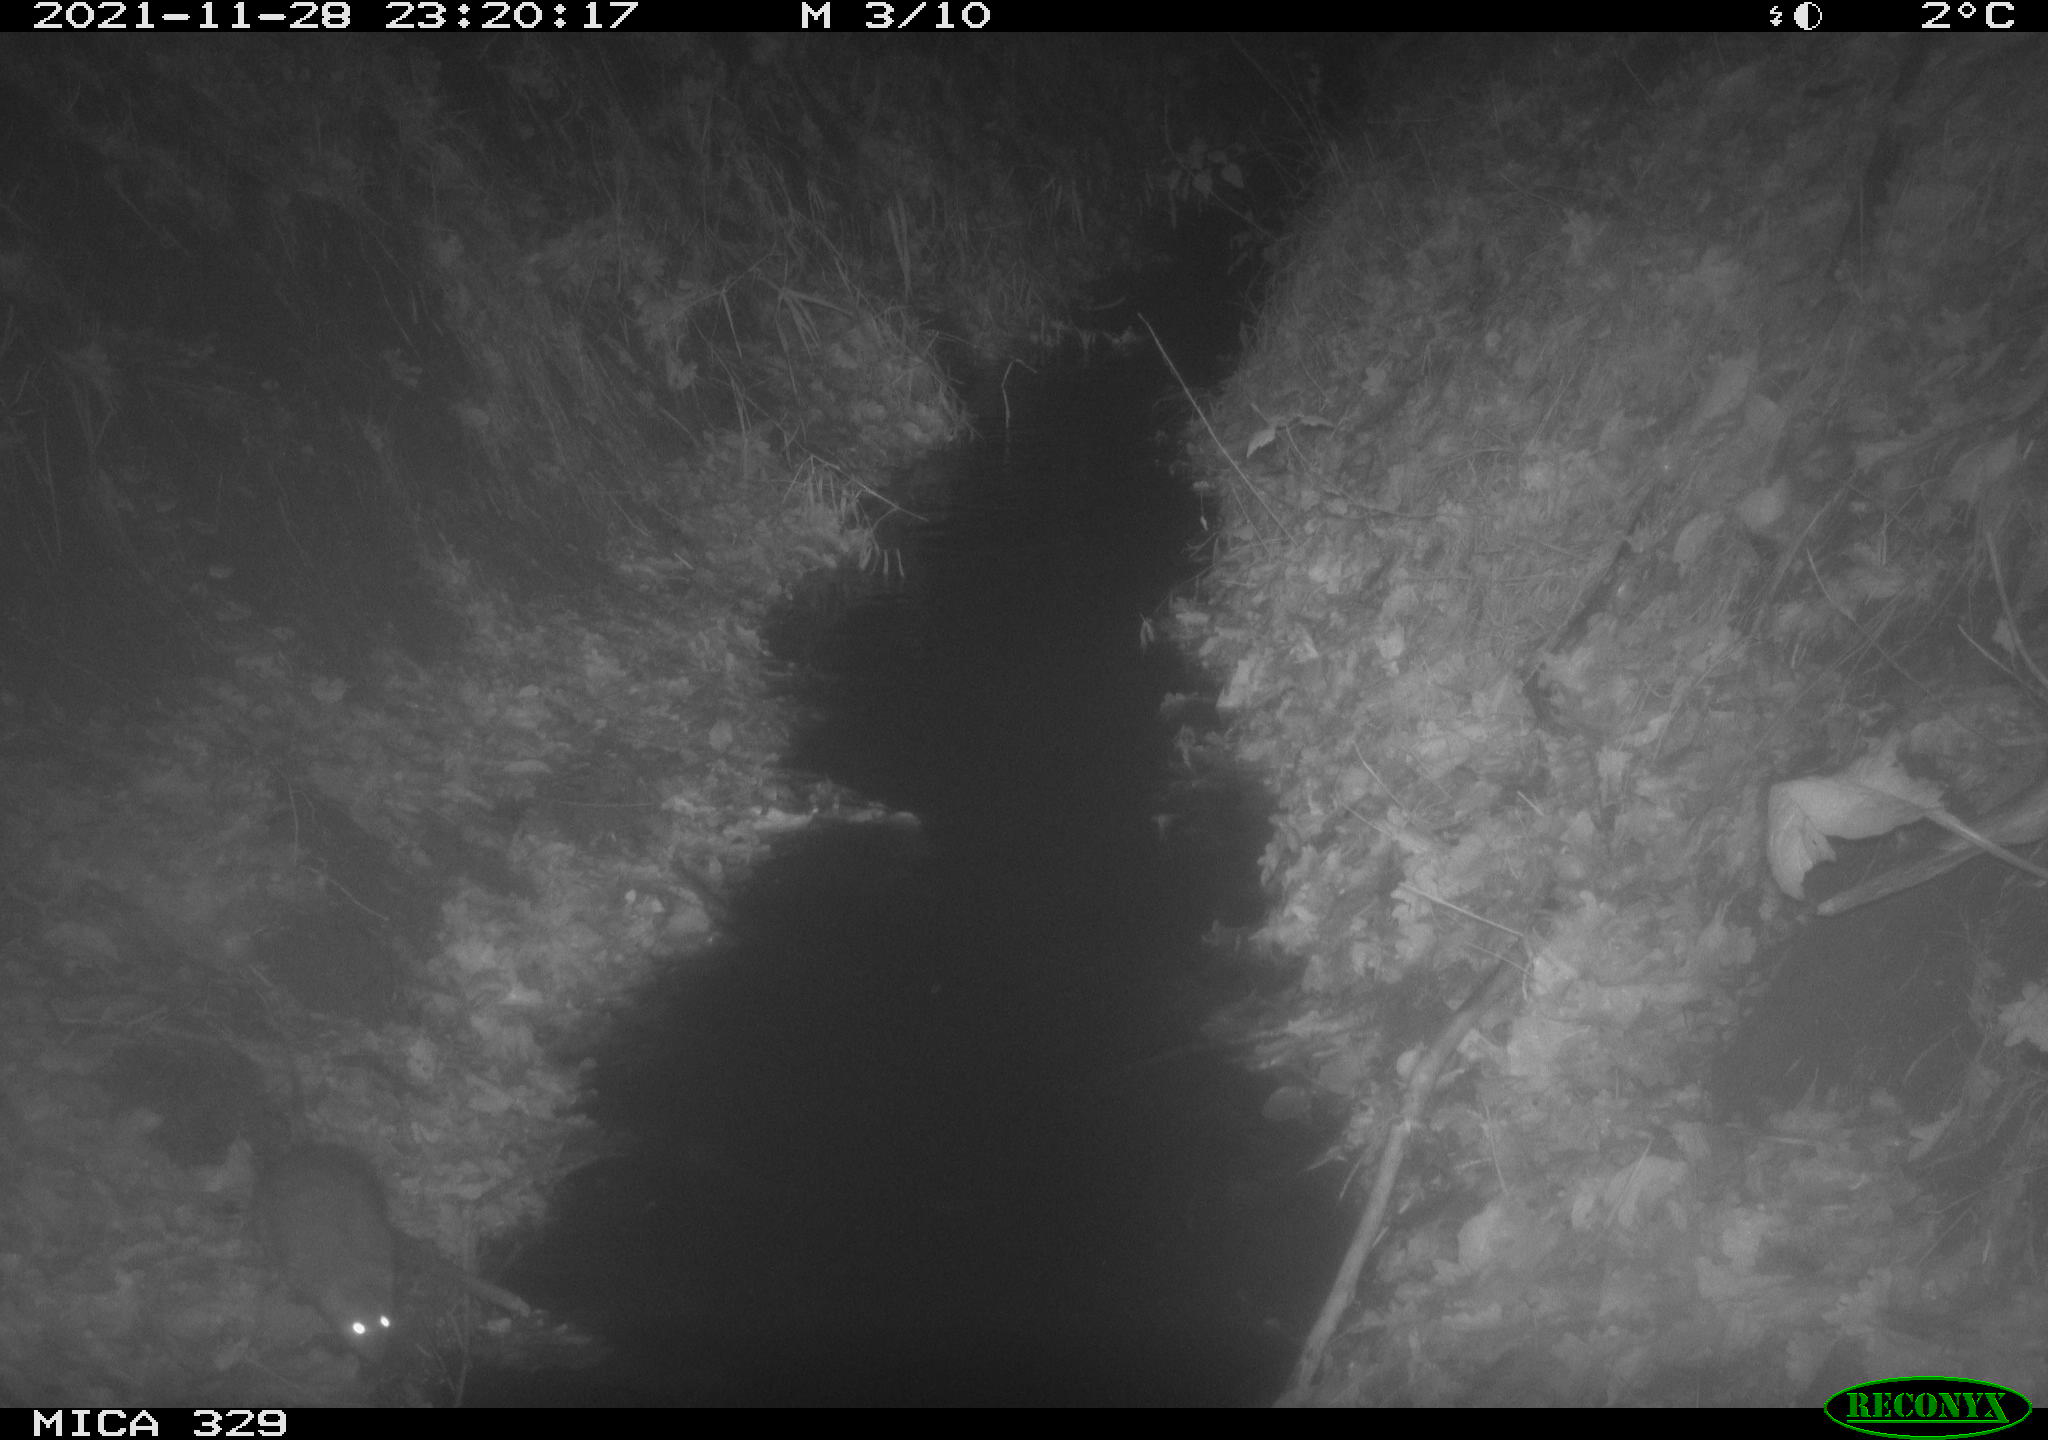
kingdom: Animalia
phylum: Chordata
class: Mammalia
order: Rodentia
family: Muridae
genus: Rattus
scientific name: Rattus norvegicus
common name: Brown rat
